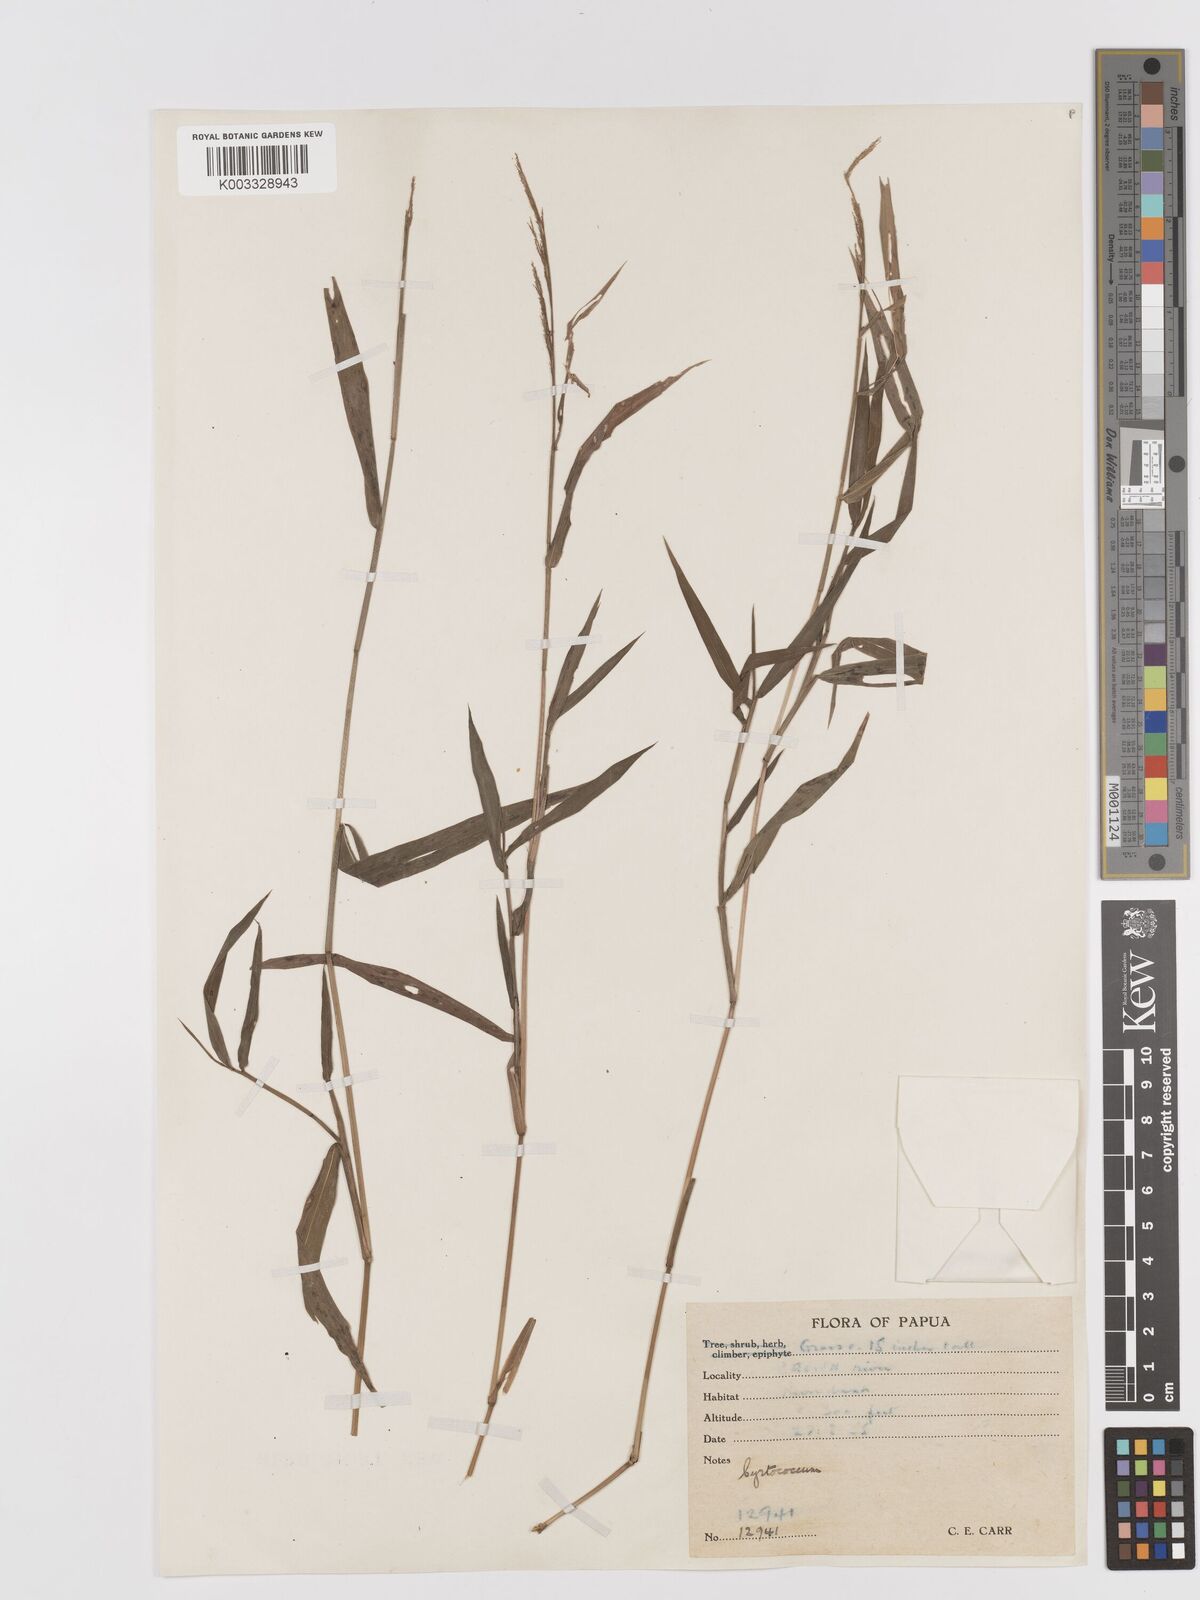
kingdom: Plantae
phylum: Tracheophyta
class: Liliopsida
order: Poales
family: Poaceae
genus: Cyrtococcum
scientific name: Cyrtococcum oxyphyllum
